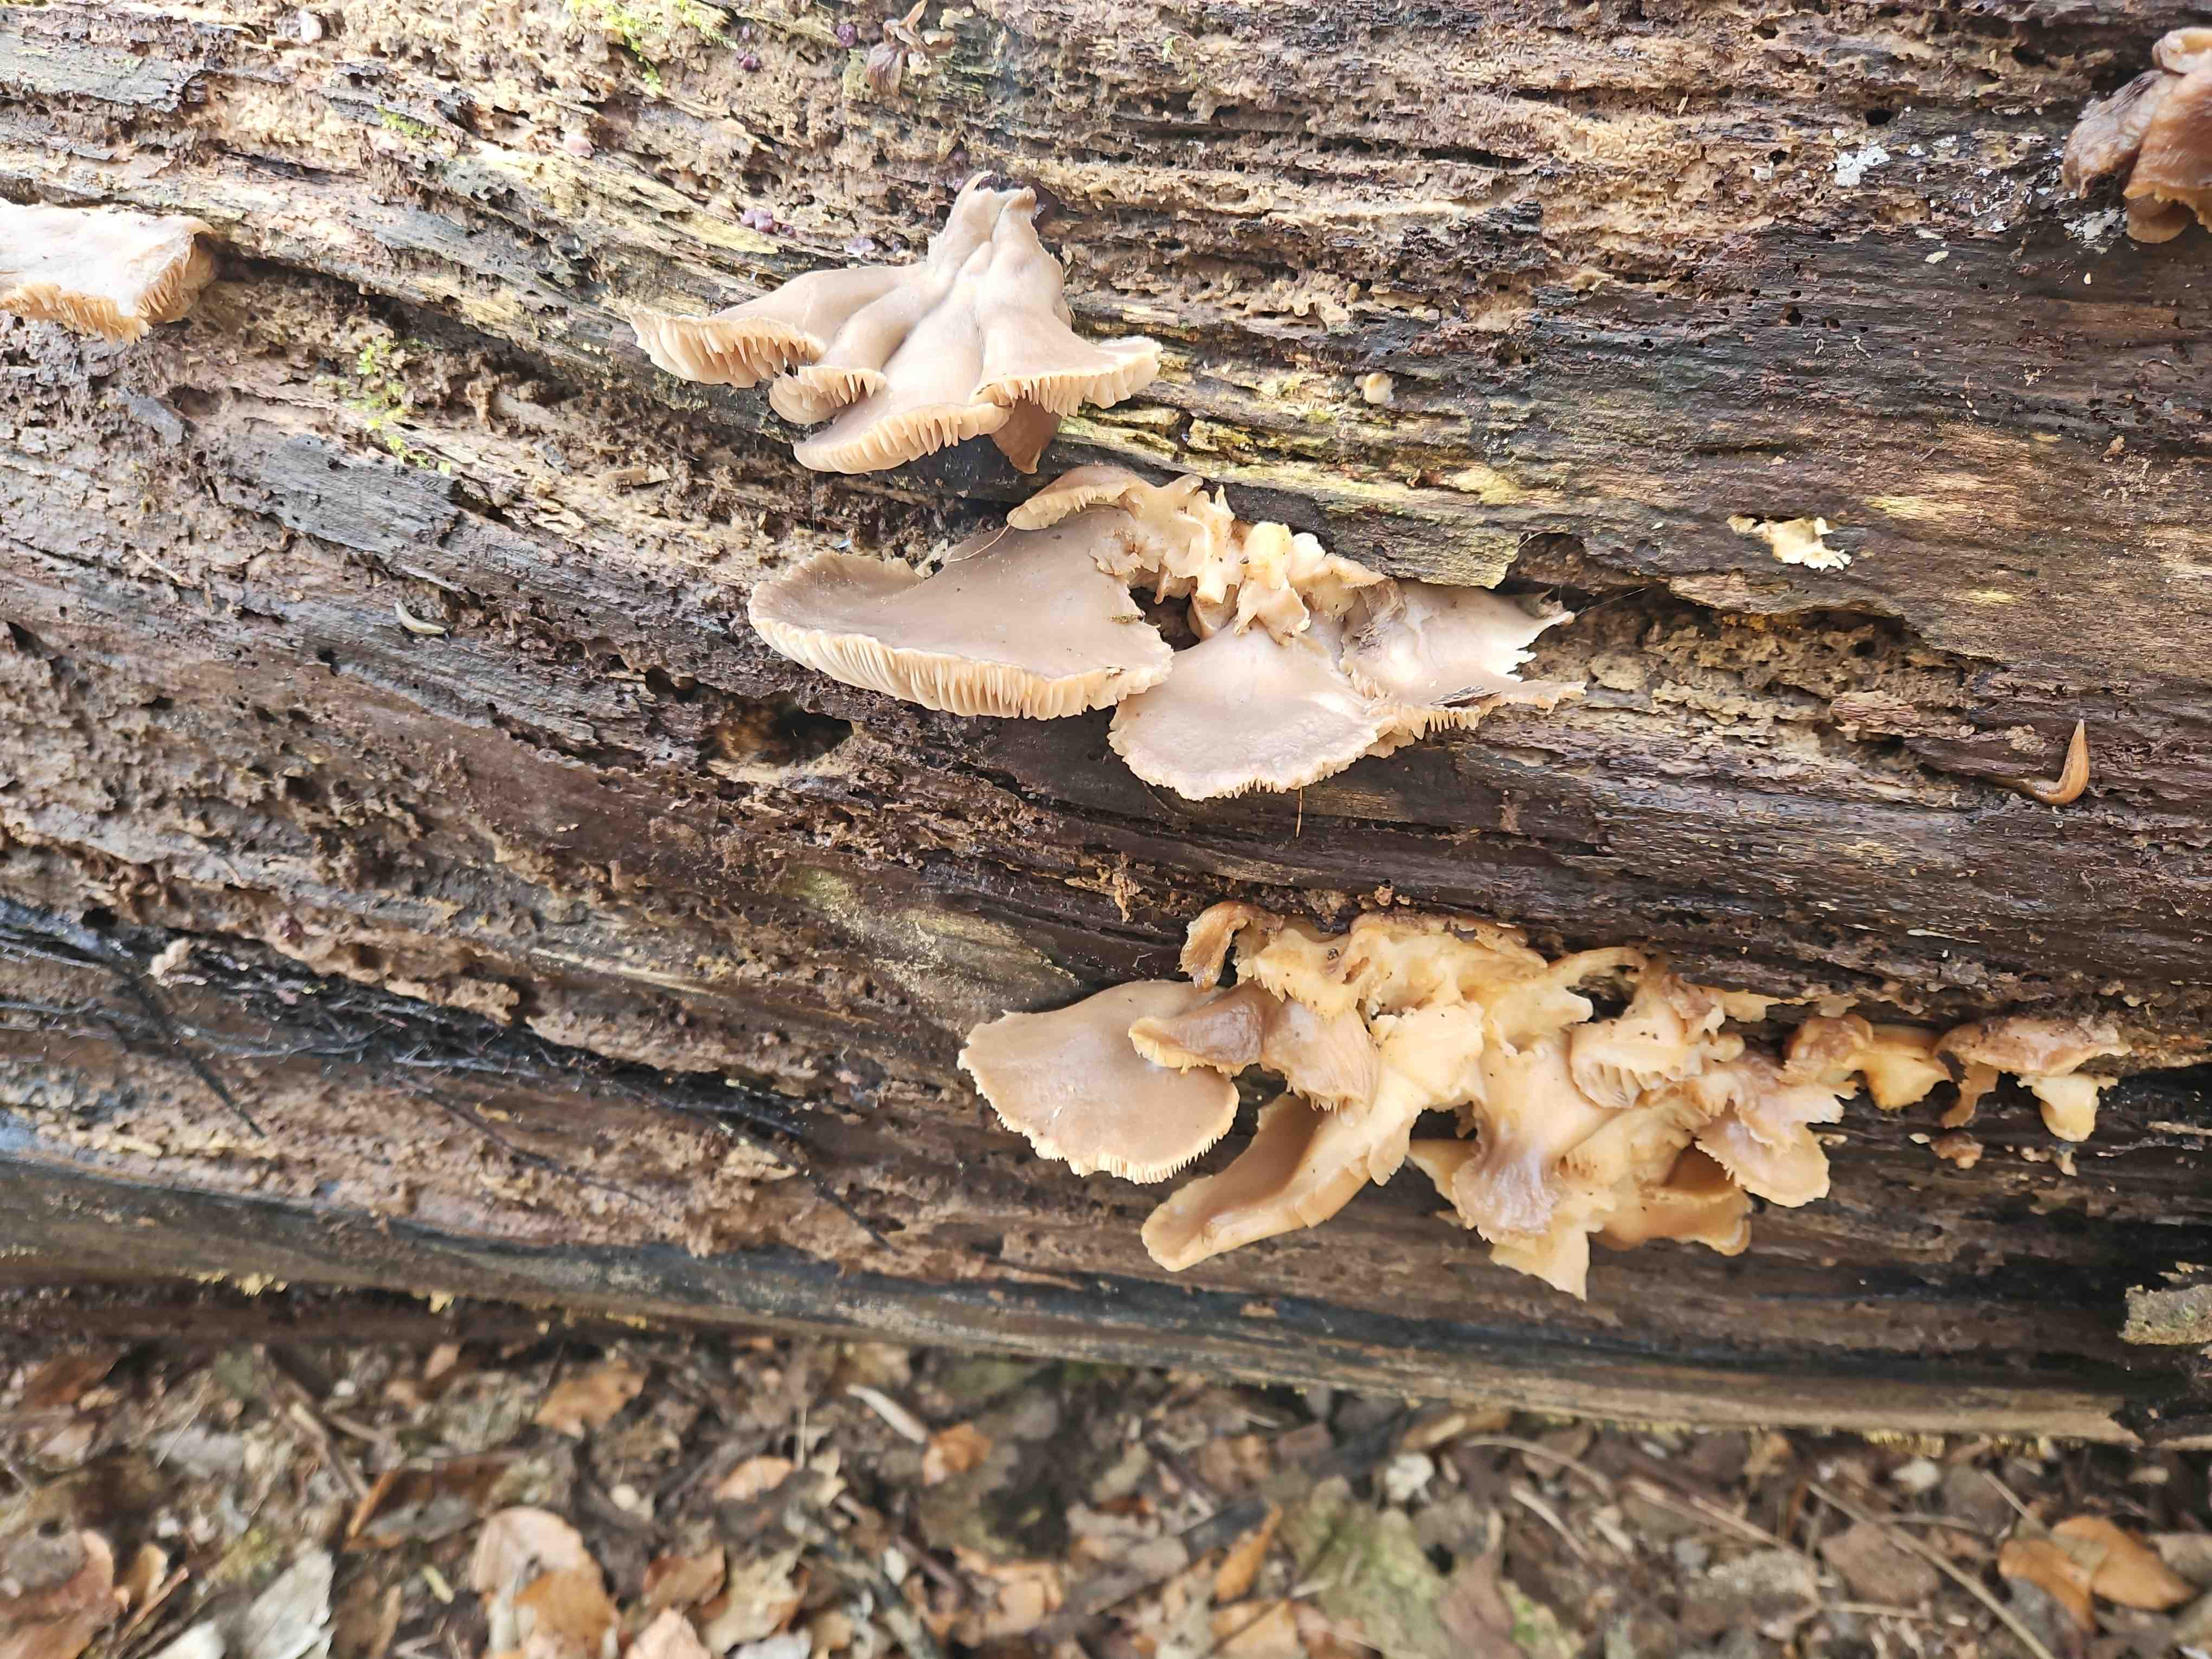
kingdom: Fungi
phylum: Basidiomycota
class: Agaricomycetes
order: Agaricales
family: Pleurotaceae
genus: Pleurotus
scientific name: Pleurotus ostreatus
